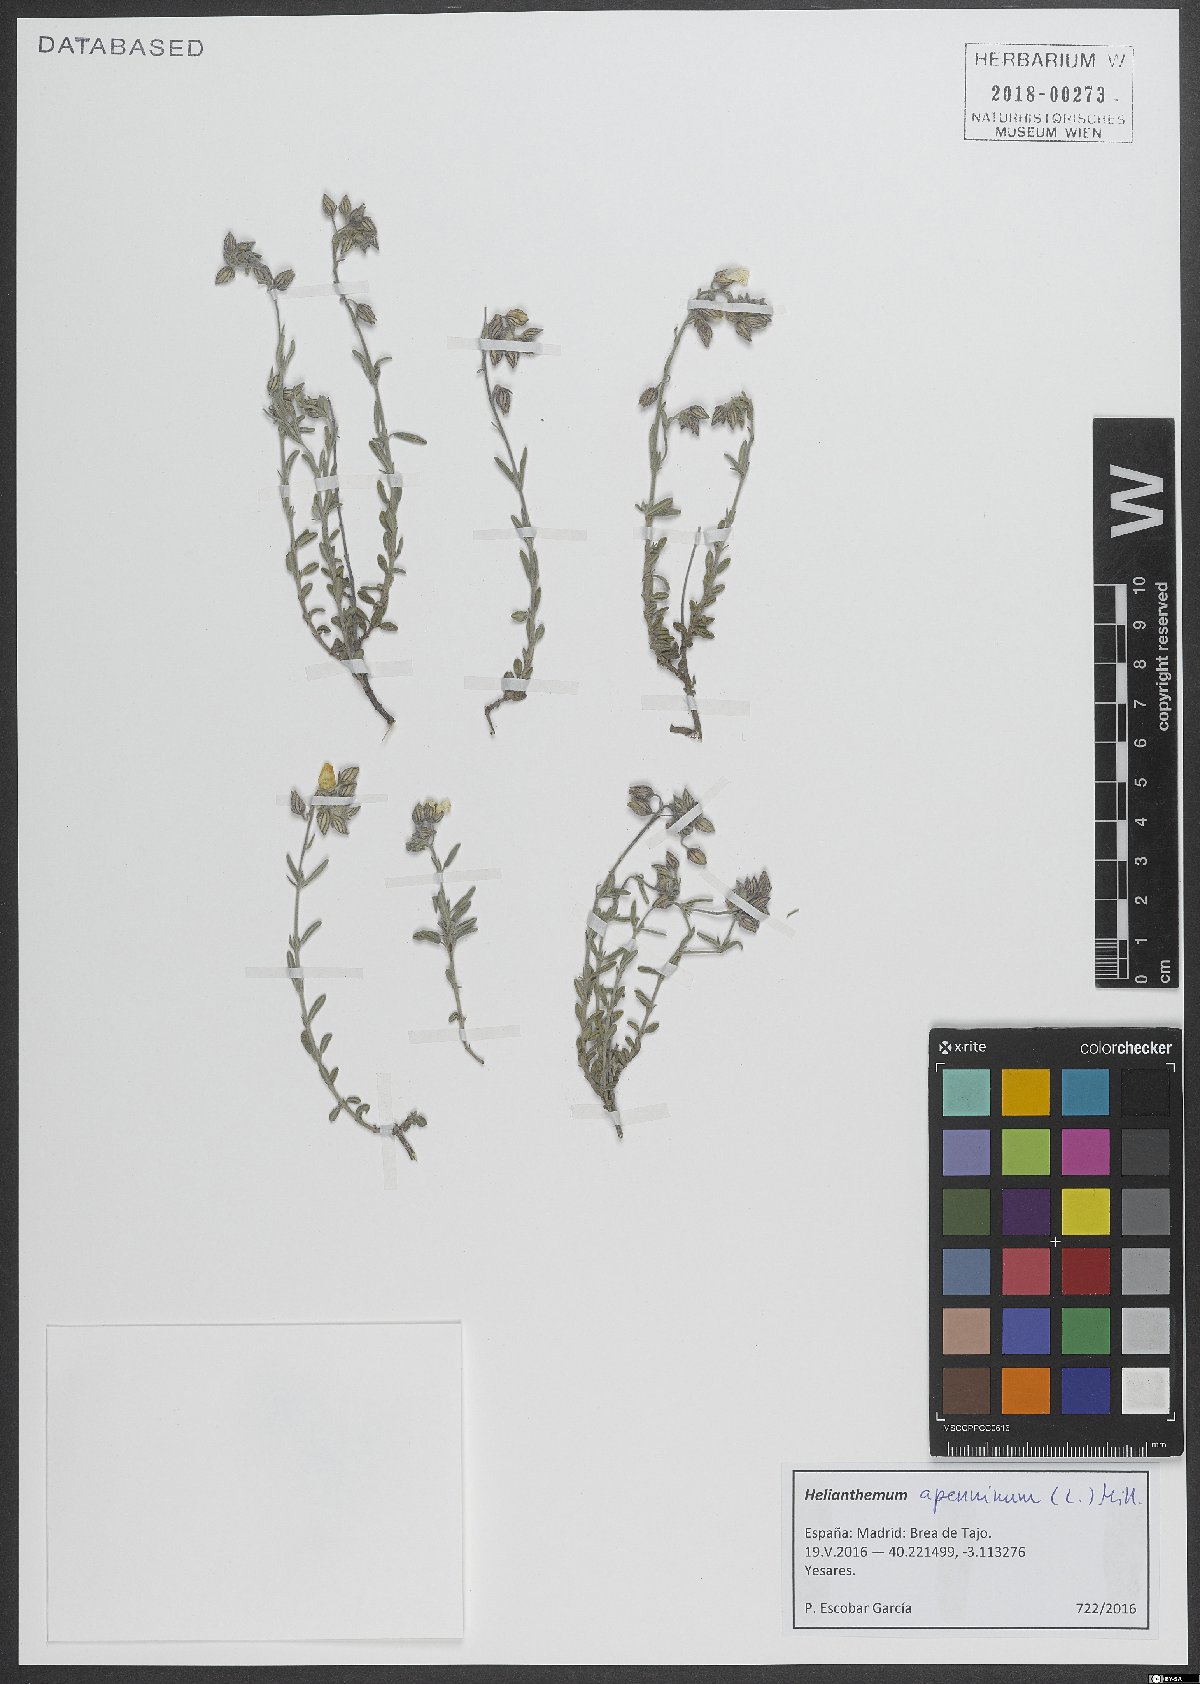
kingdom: Plantae
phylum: Tracheophyta
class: Magnoliopsida
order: Malvales
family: Cistaceae
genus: Helianthemum
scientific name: Helianthemum apenninum
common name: White rock-rose
